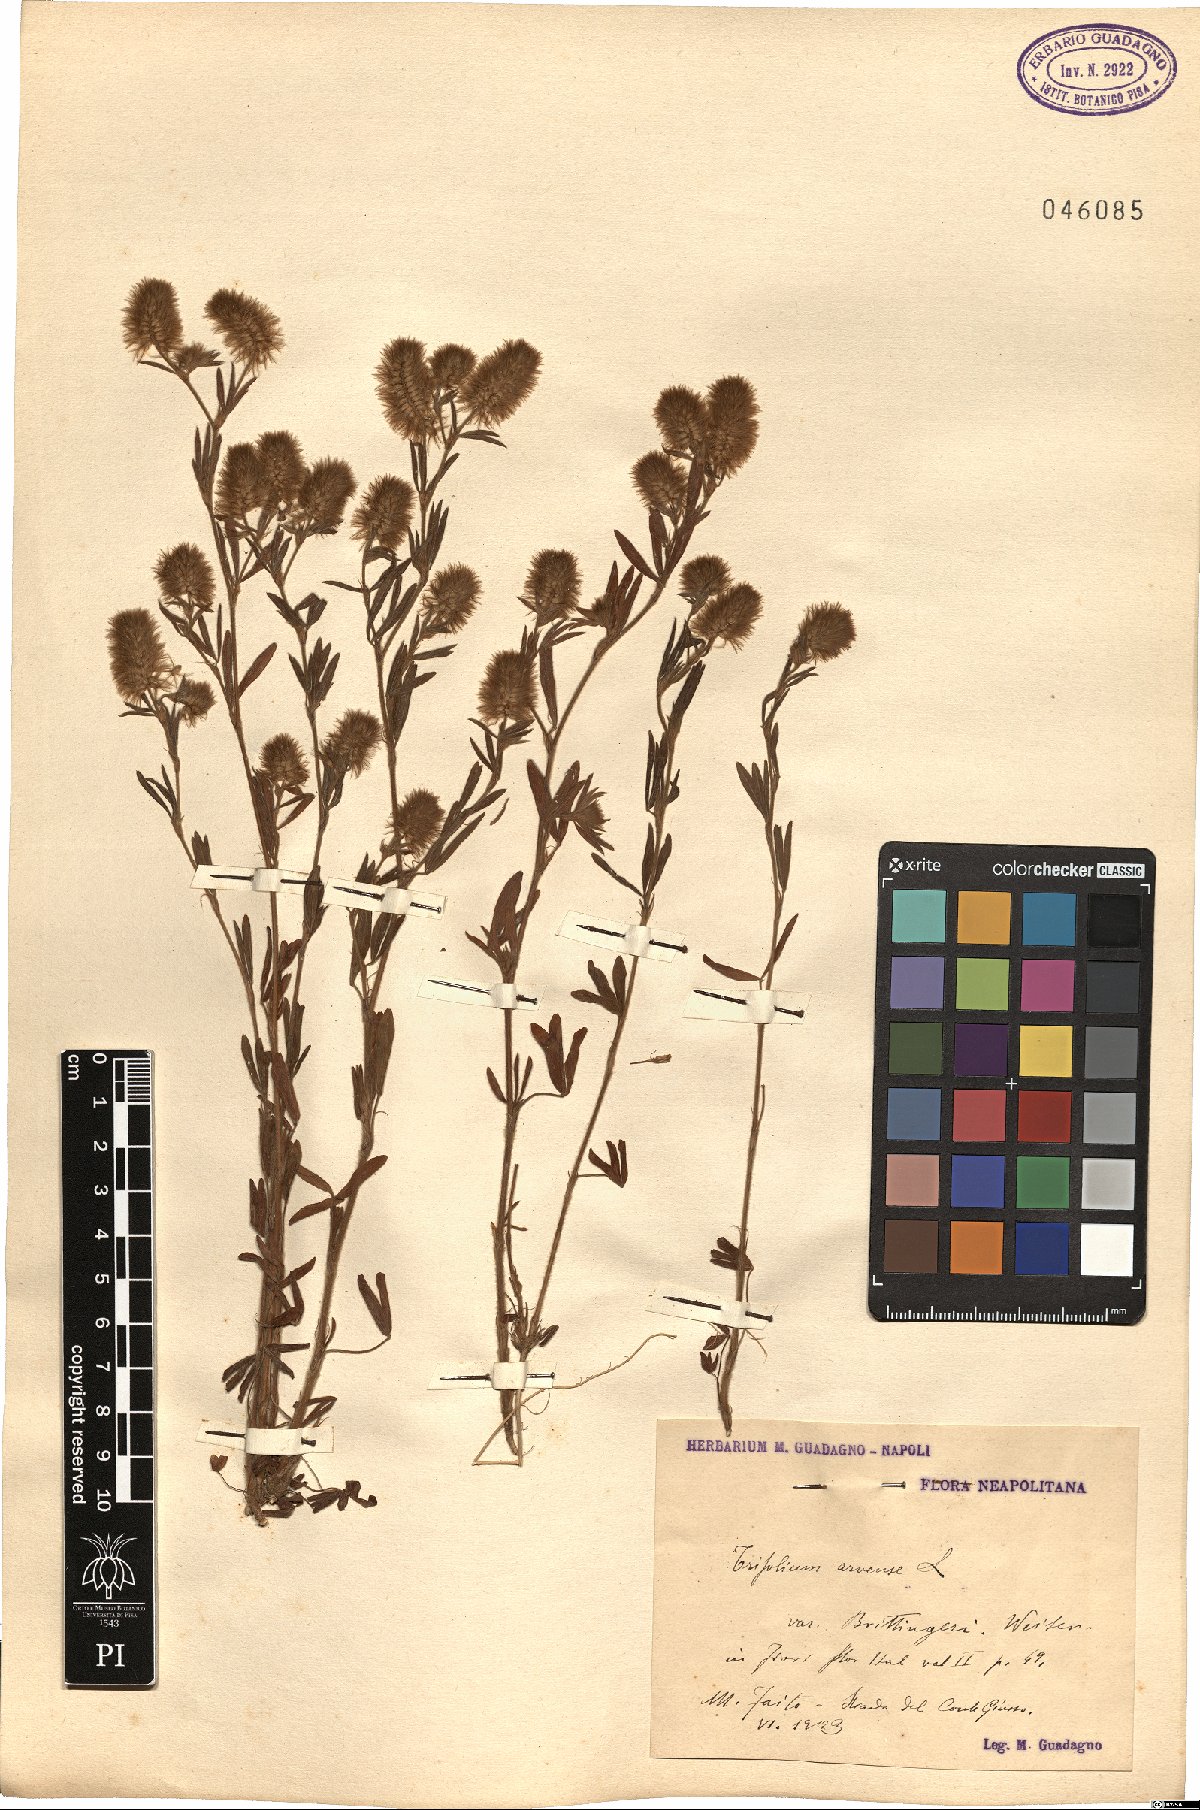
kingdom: Plantae
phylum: Tracheophyta
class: Magnoliopsida
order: Fabales
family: Fabaceae
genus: Trifolium
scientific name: Trifolium arvense
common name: Hare's-foot clover
